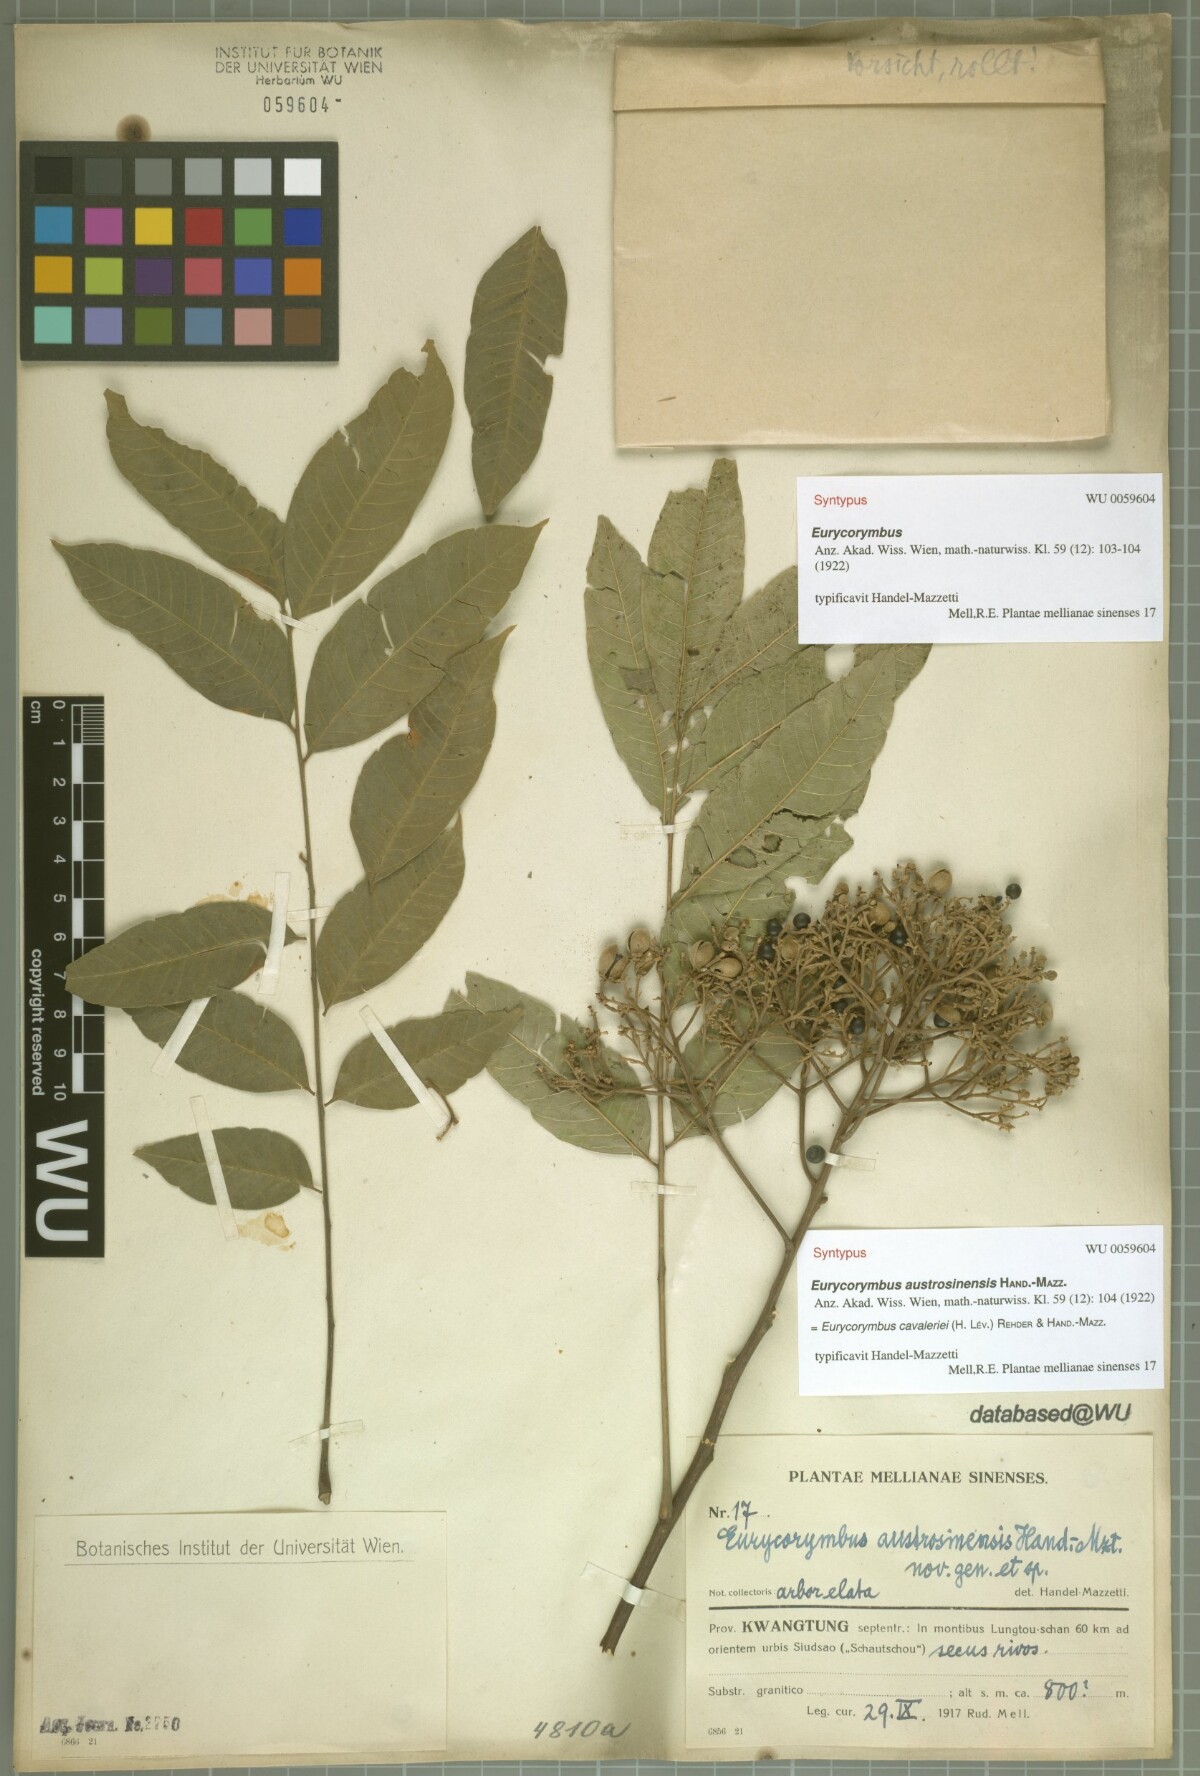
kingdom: Plantae
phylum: Tracheophyta
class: Magnoliopsida
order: Sapindales
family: Sapindaceae
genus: Eurycorymbus
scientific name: Eurycorymbus cavaleriei
